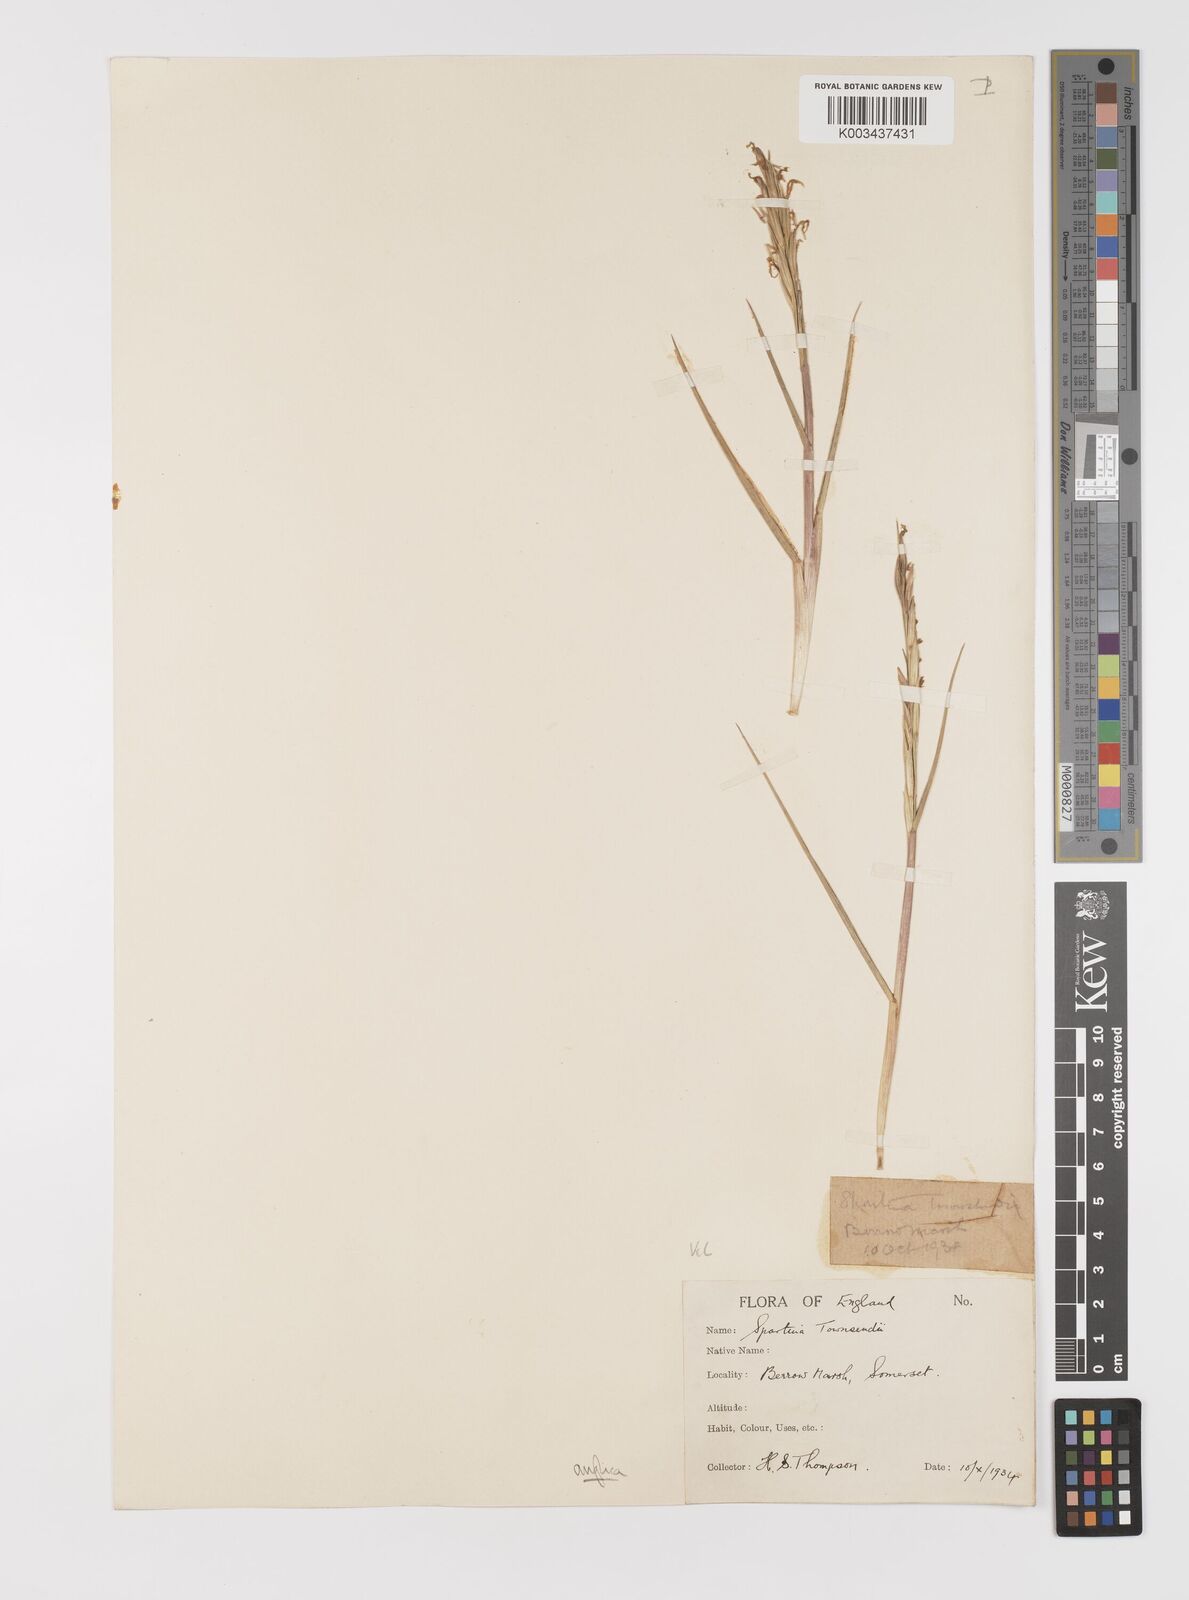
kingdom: Plantae
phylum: Tracheophyta
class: Liliopsida
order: Poales
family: Poaceae
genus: Sporobolus
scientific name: Sporobolus anglicus
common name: English cordgrass
